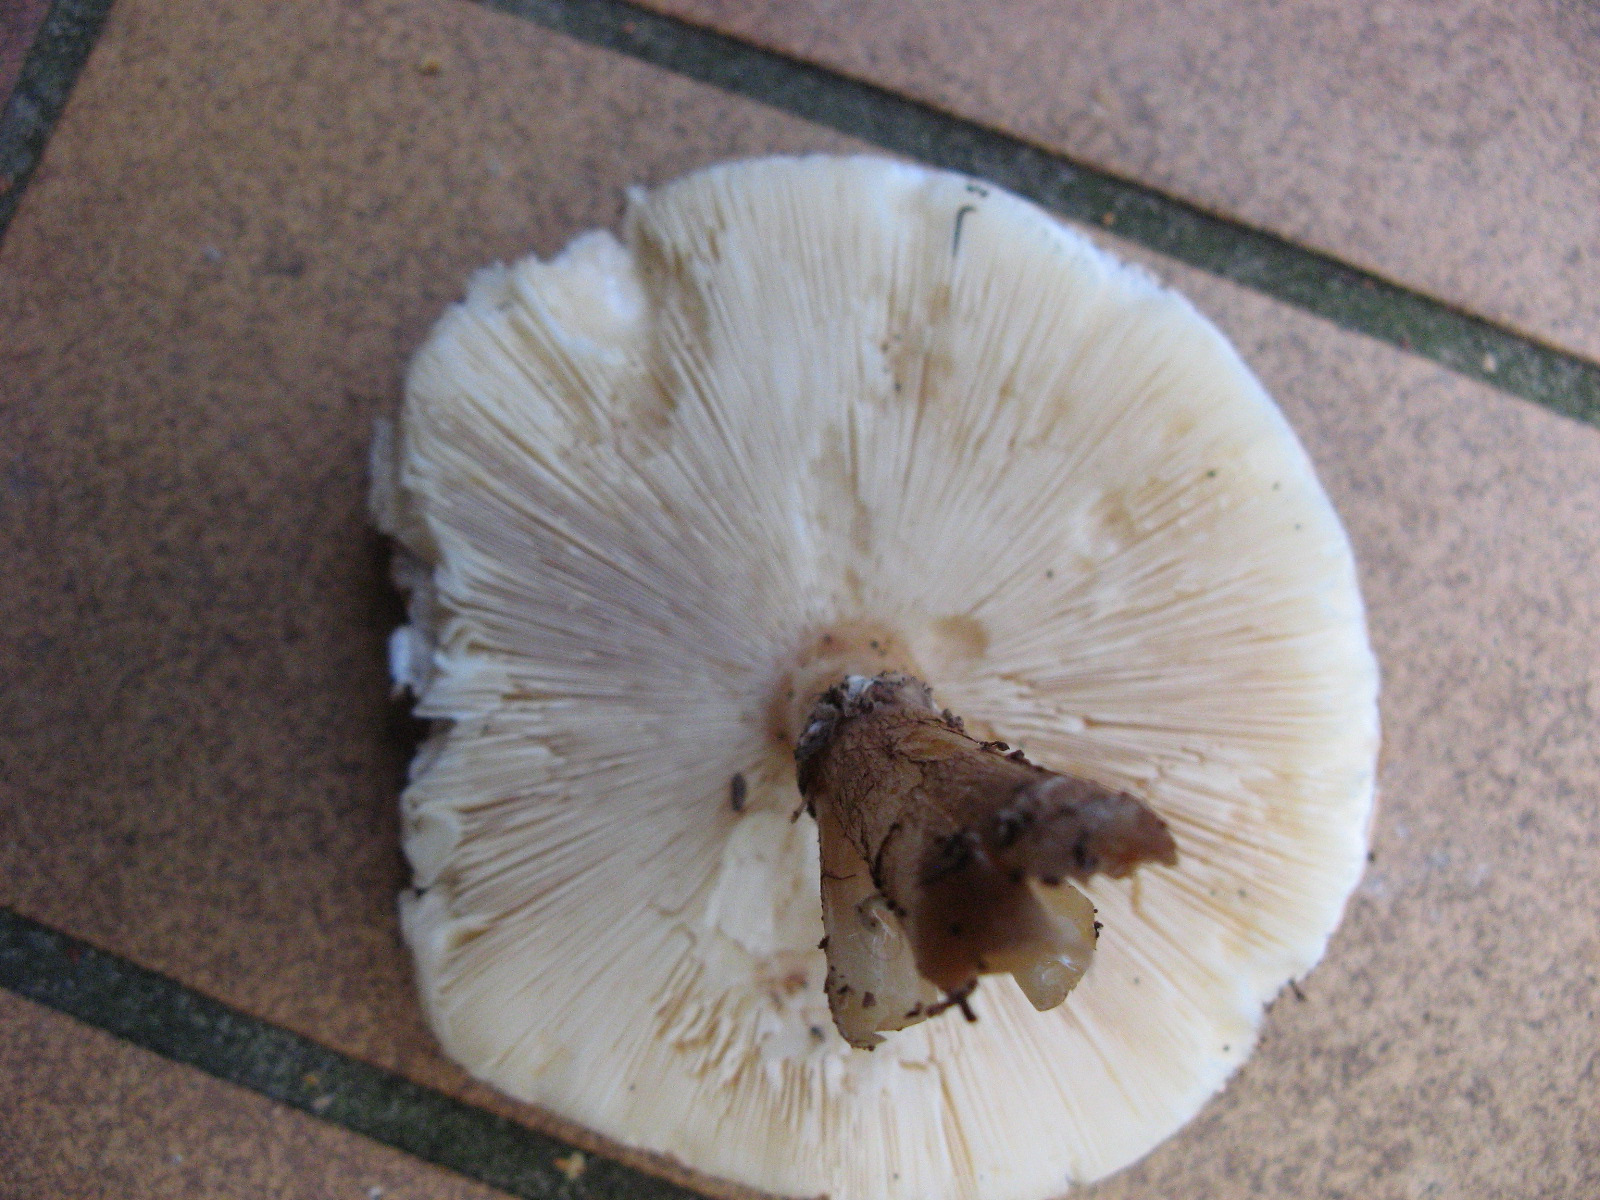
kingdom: Fungi
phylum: Basidiomycota
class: Agaricomycetes
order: Agaricales
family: Agaricaceae
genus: Echinoderma
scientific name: Echinoderma asperum
